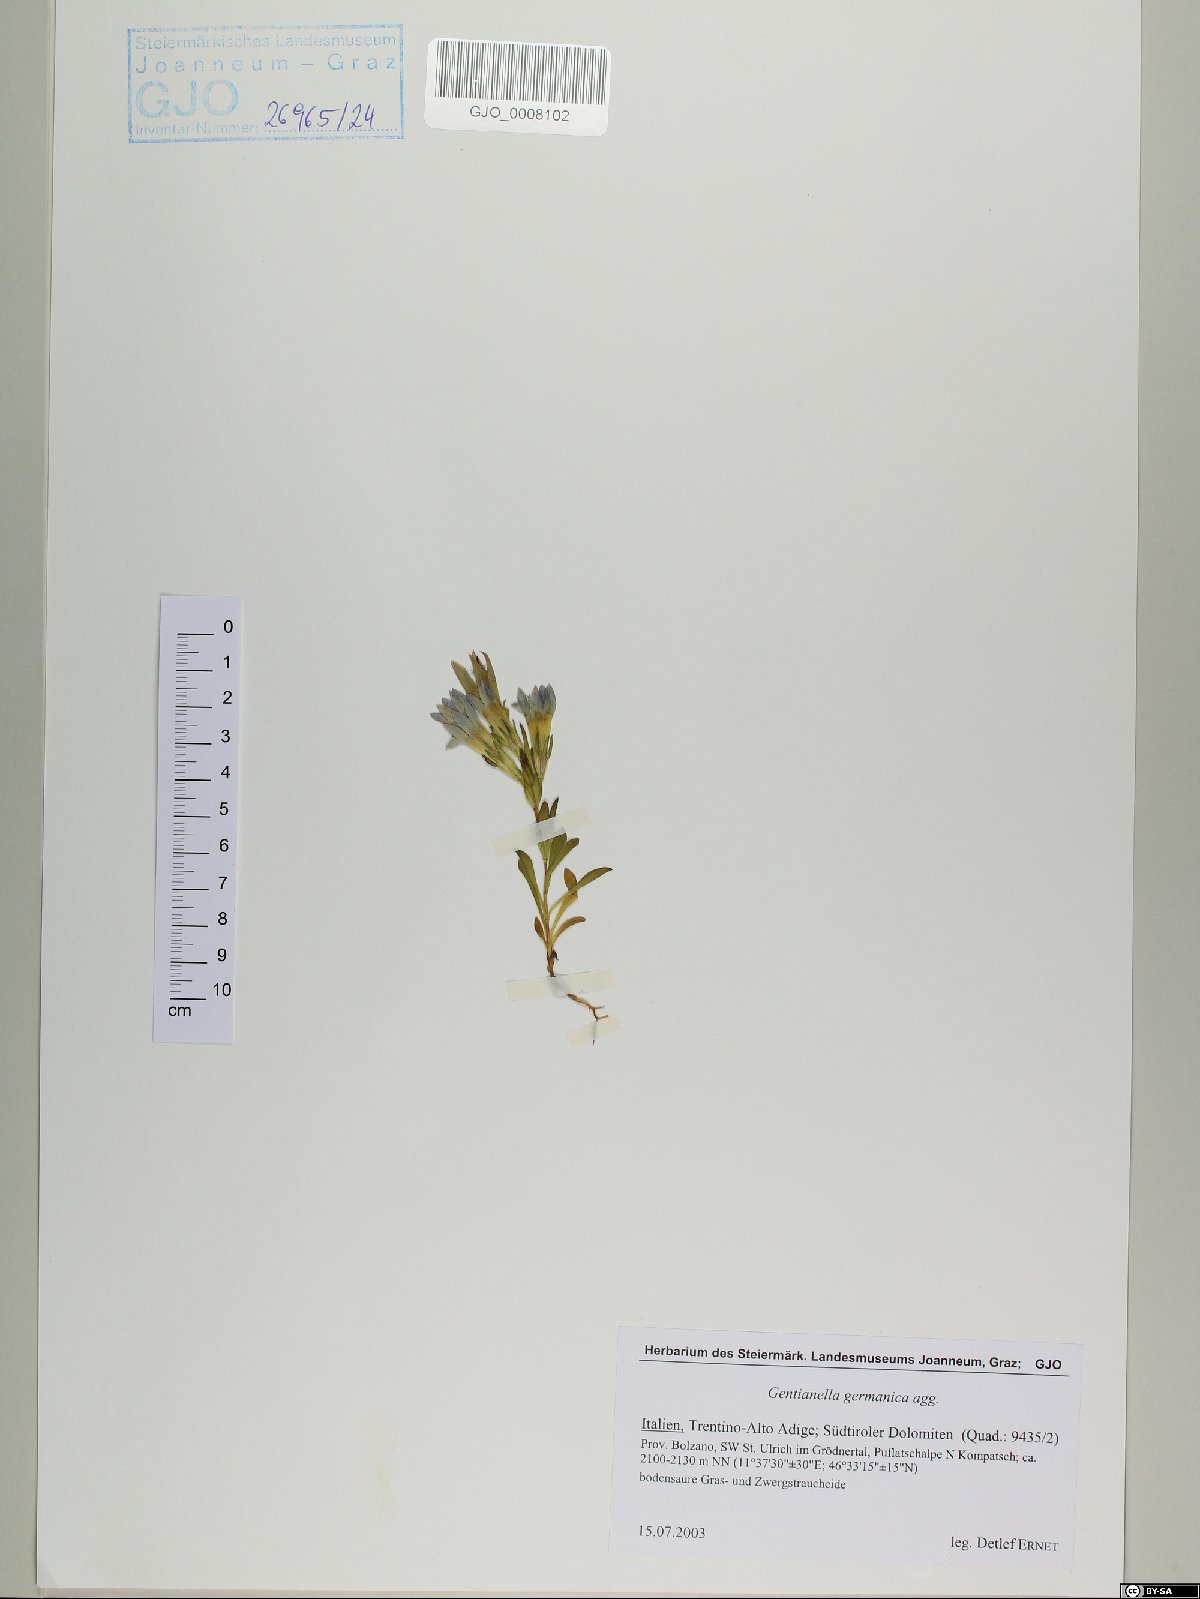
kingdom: Plantae
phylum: Tracheophyta
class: Magnoliopsida
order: Gentianales
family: Gentianaceae
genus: Gentianella
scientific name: Gentianella germanica
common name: Chiltern-gentian
